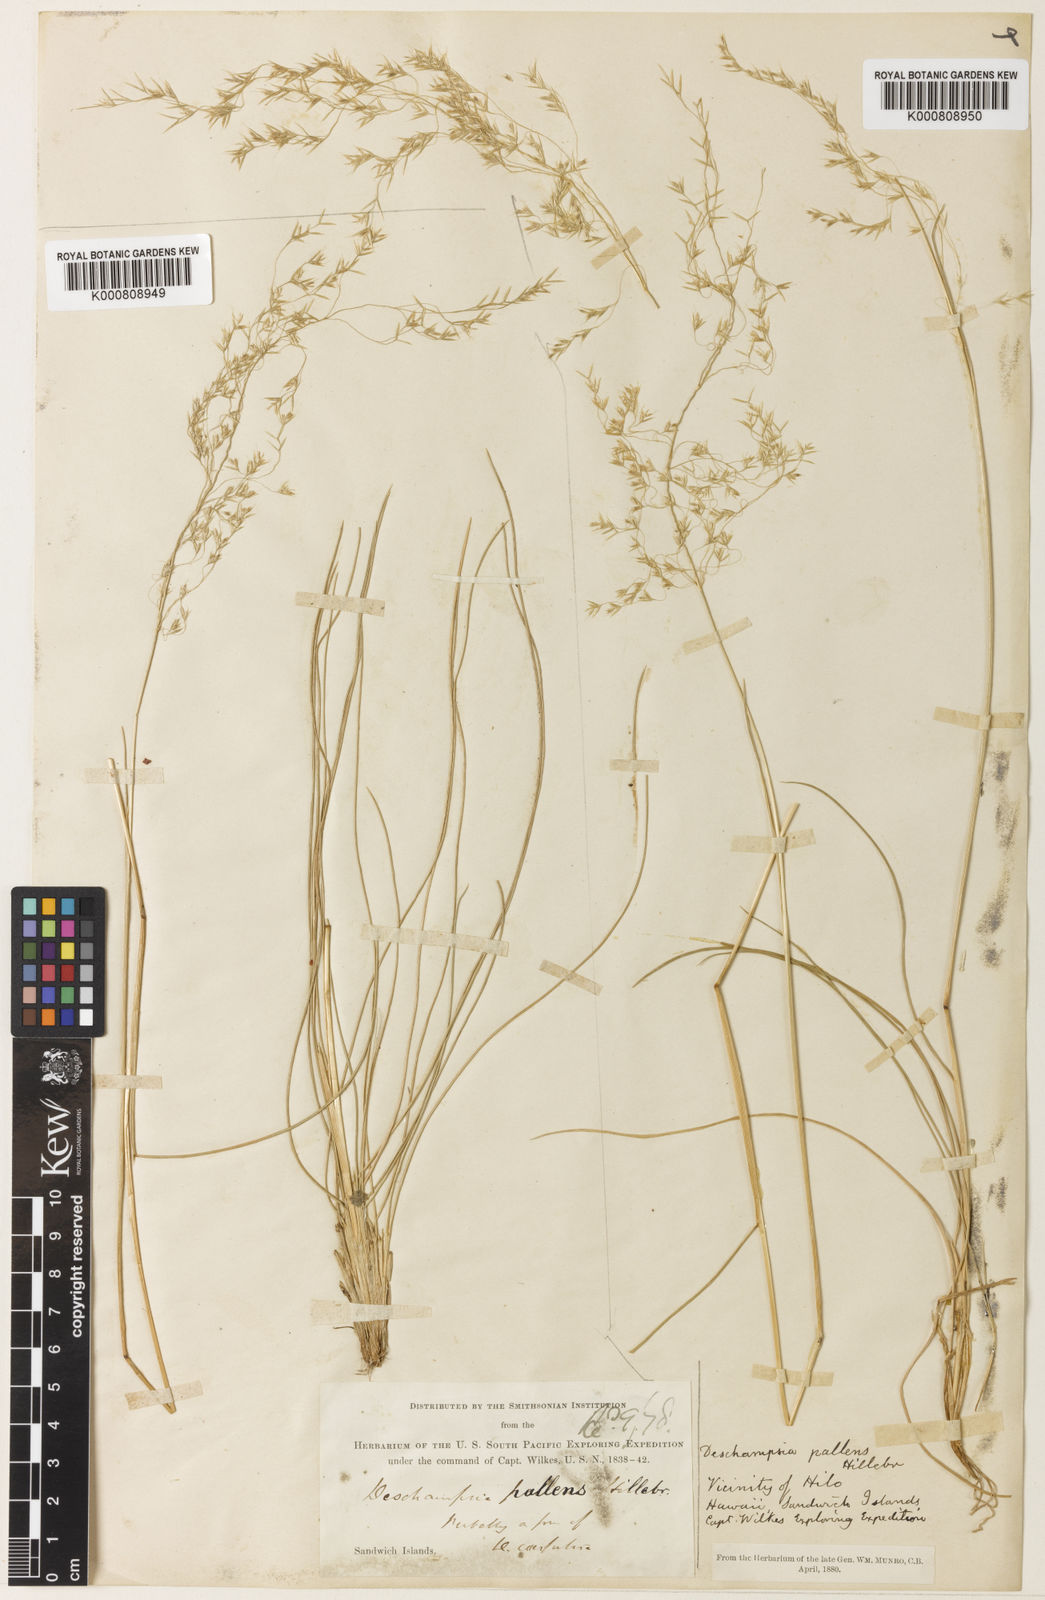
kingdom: Plantae
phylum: Tracheophyta
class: Liliopsida
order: Poales
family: Poaceae
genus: Deschampsia
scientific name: Deschampsia nubigena
